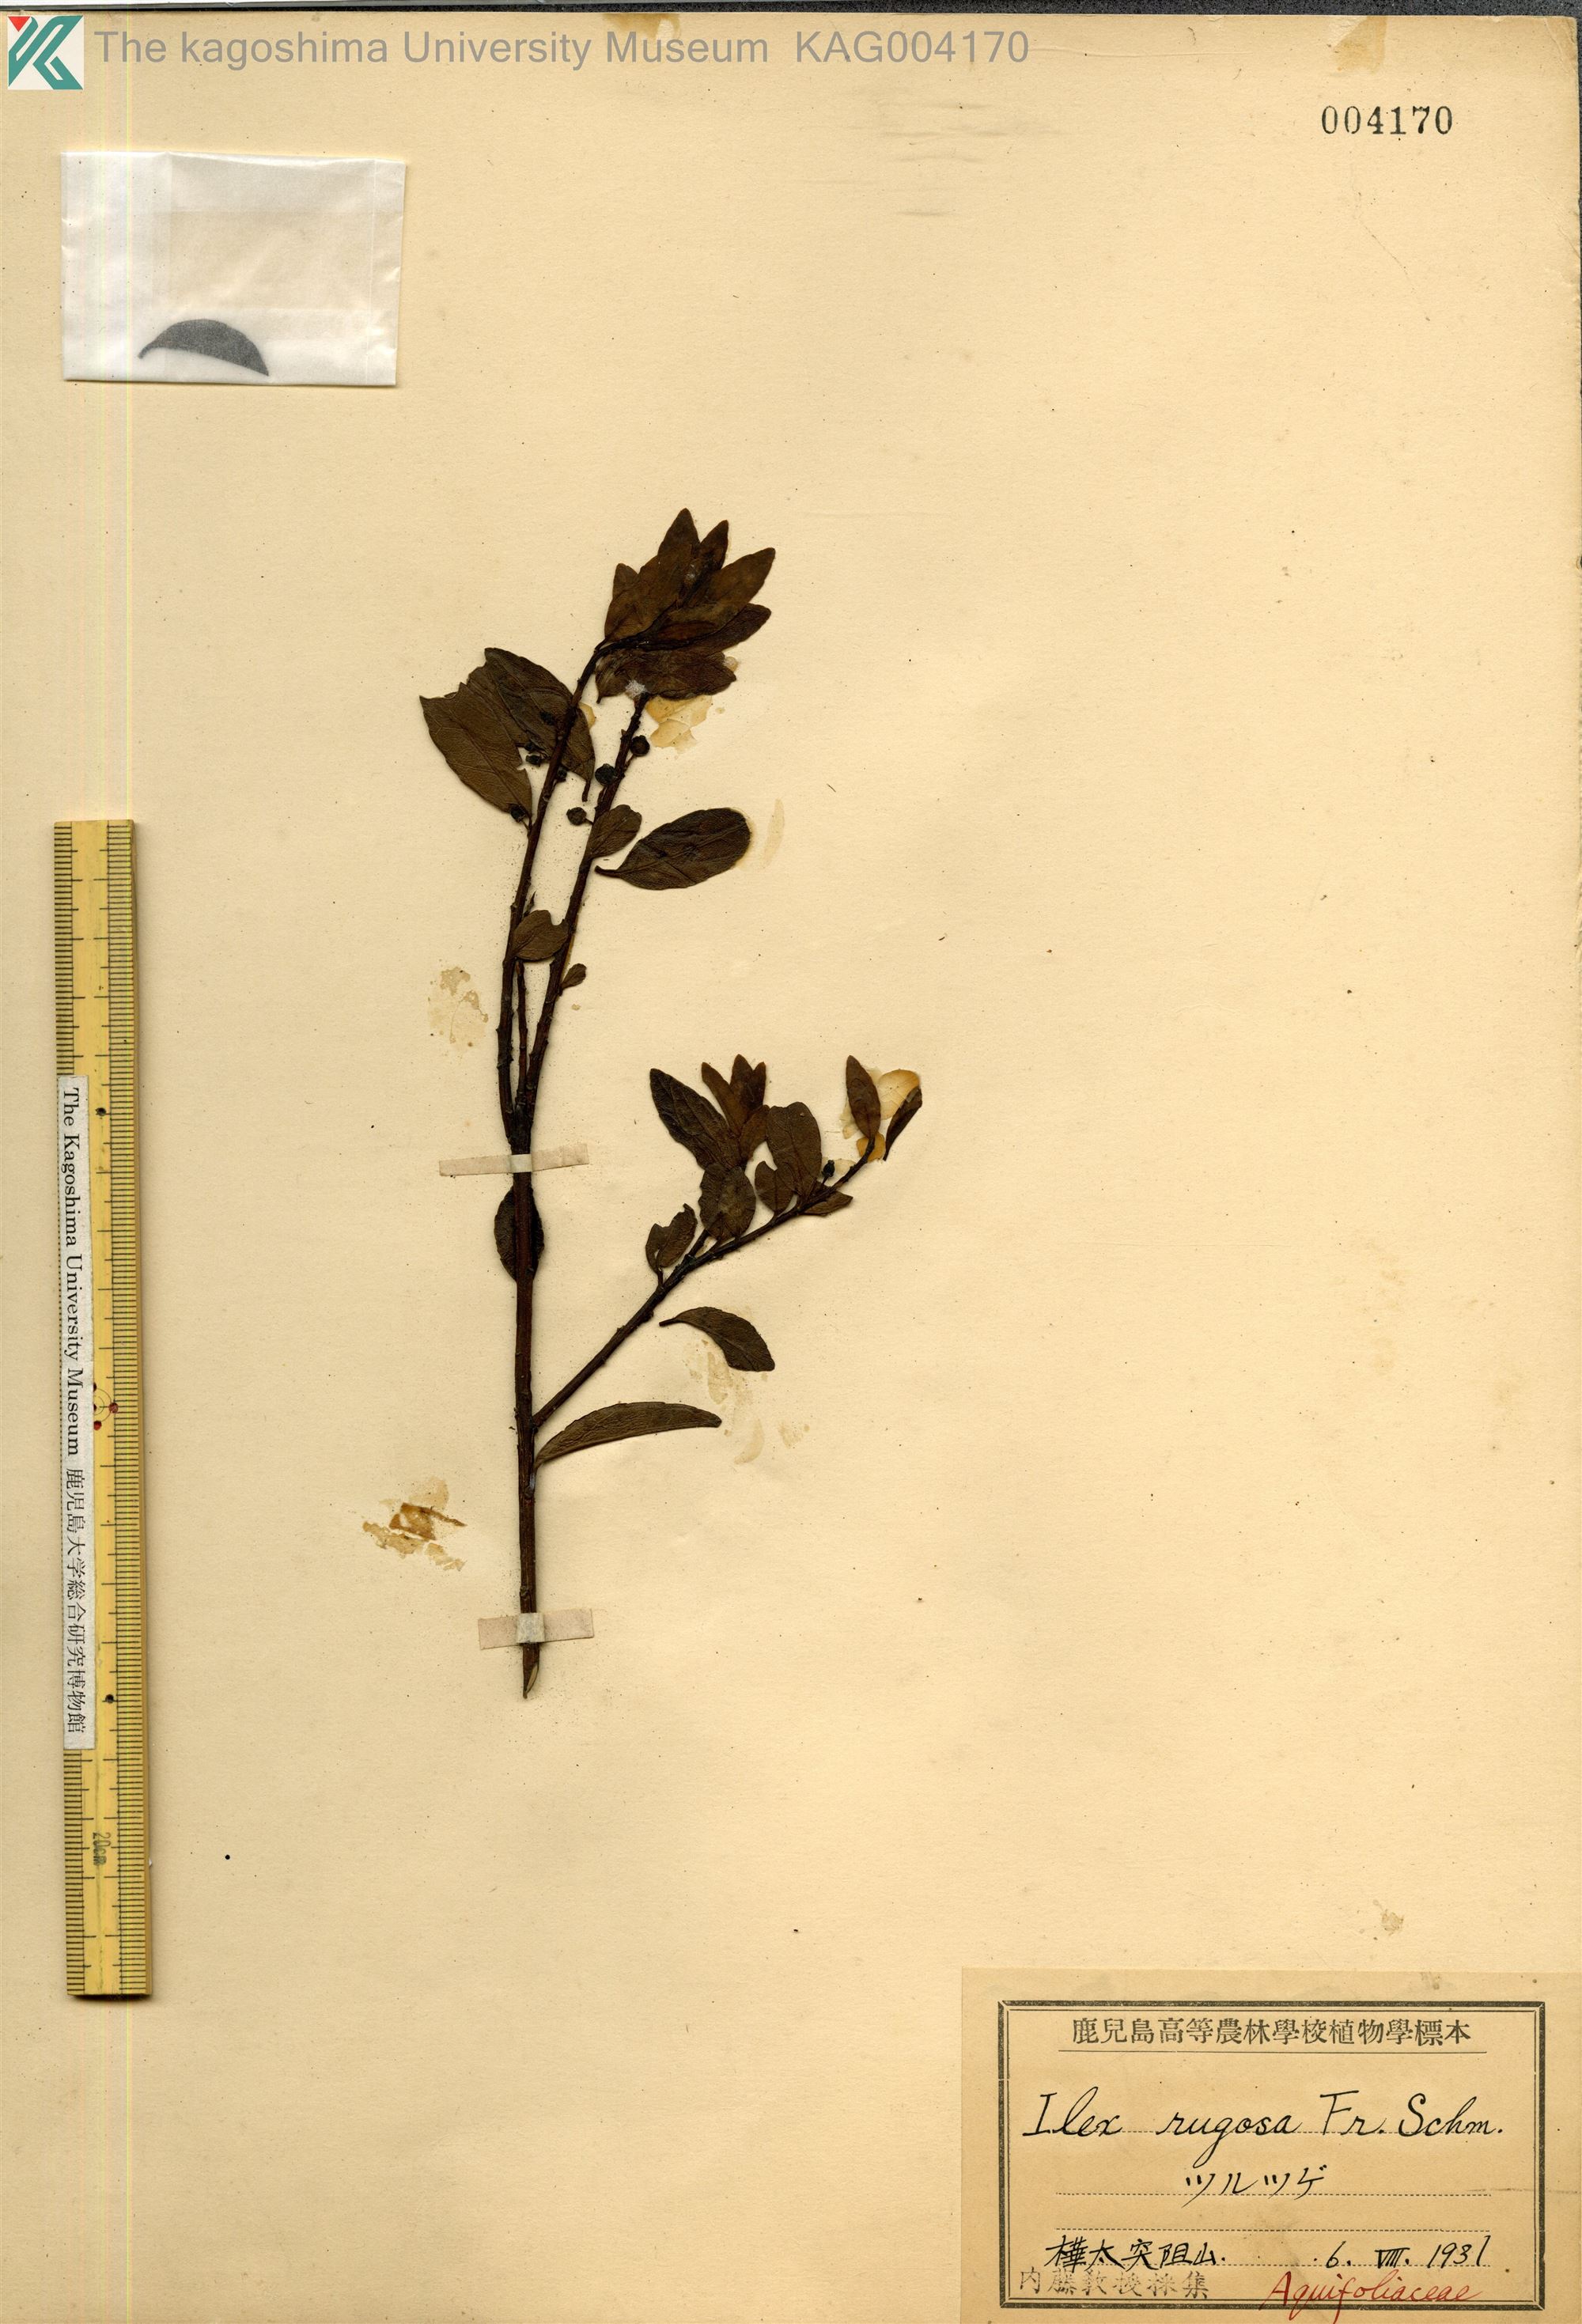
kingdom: Plantae
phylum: Tracheophyta
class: Magnoliopsida
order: Aquifoliales
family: Aquifoliaceae
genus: Ilex
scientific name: Ilex rugosa
